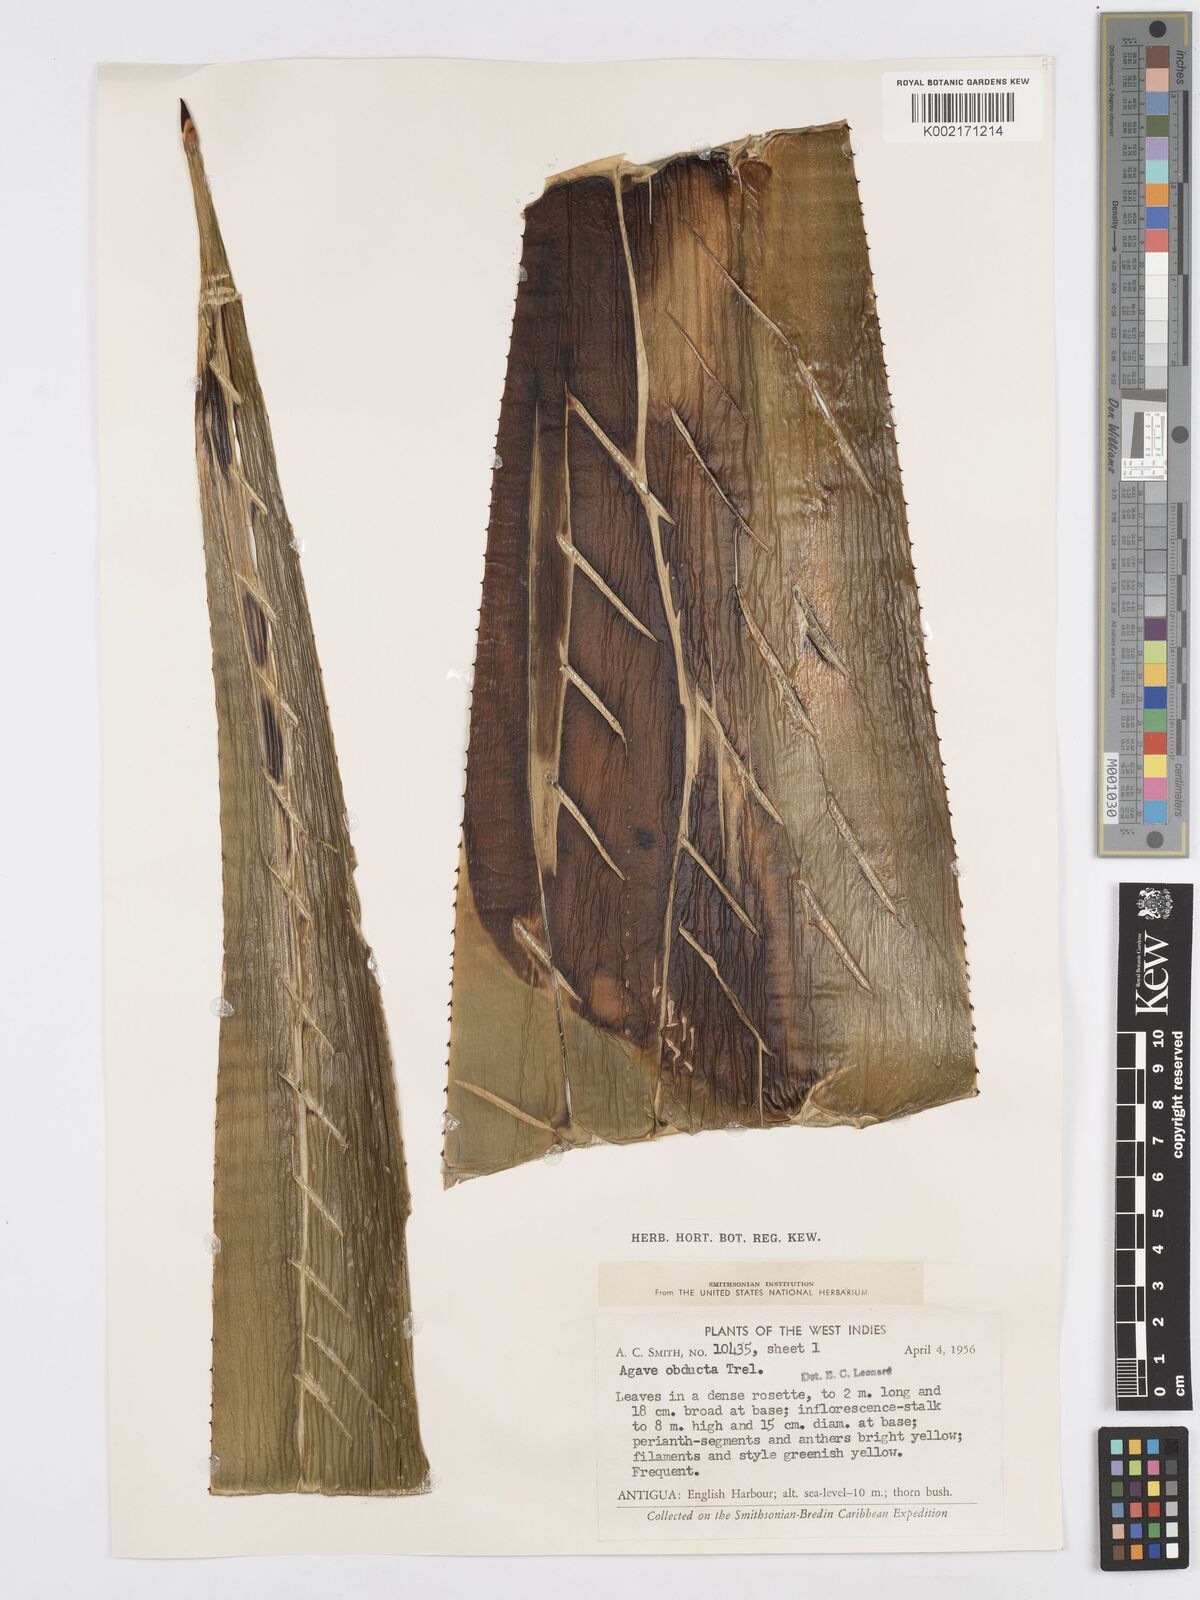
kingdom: Plantae
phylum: Tracheophyta
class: Liliopsida
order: Asparagales
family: Asparagaceae
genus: Agave
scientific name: Agave karatto
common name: Century plant
